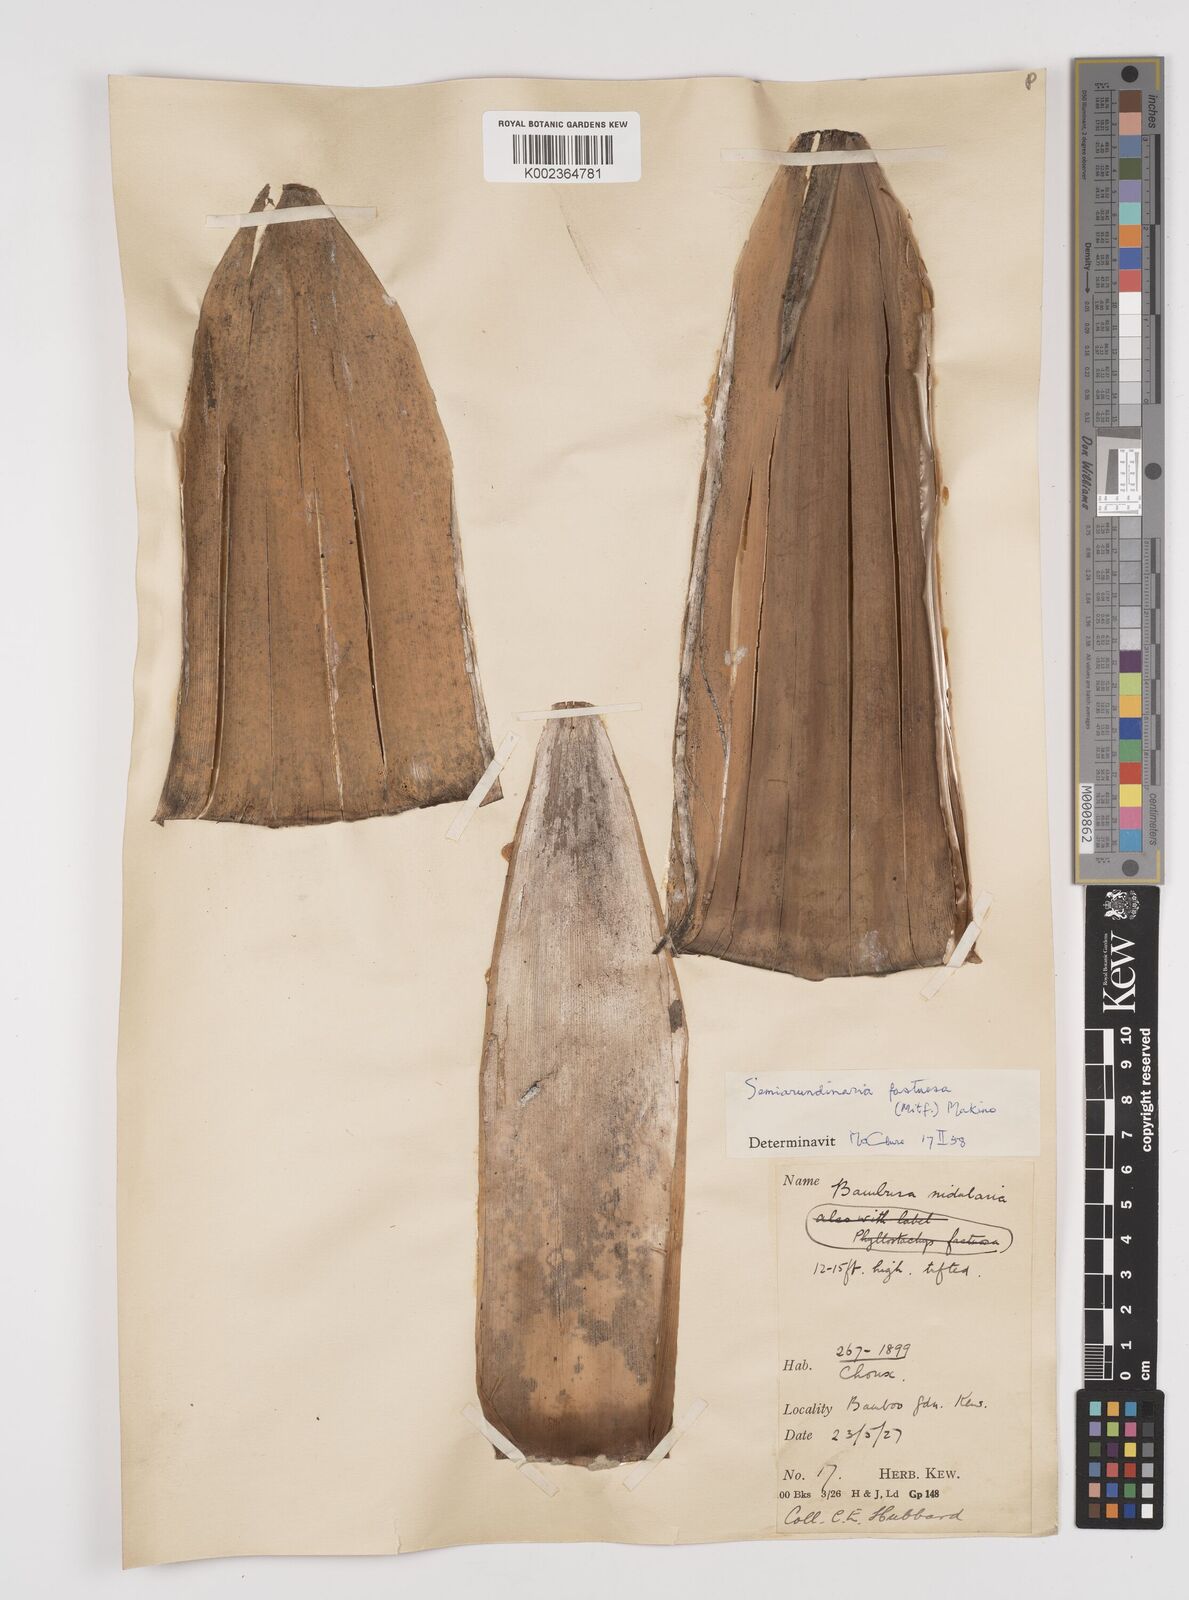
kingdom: Plantae
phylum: Tracheophyta
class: Liliopsida
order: Poales
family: Poaceae
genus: Semiarundinaria
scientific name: Semiarundinaria fastuosa
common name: Narihira bamboo
